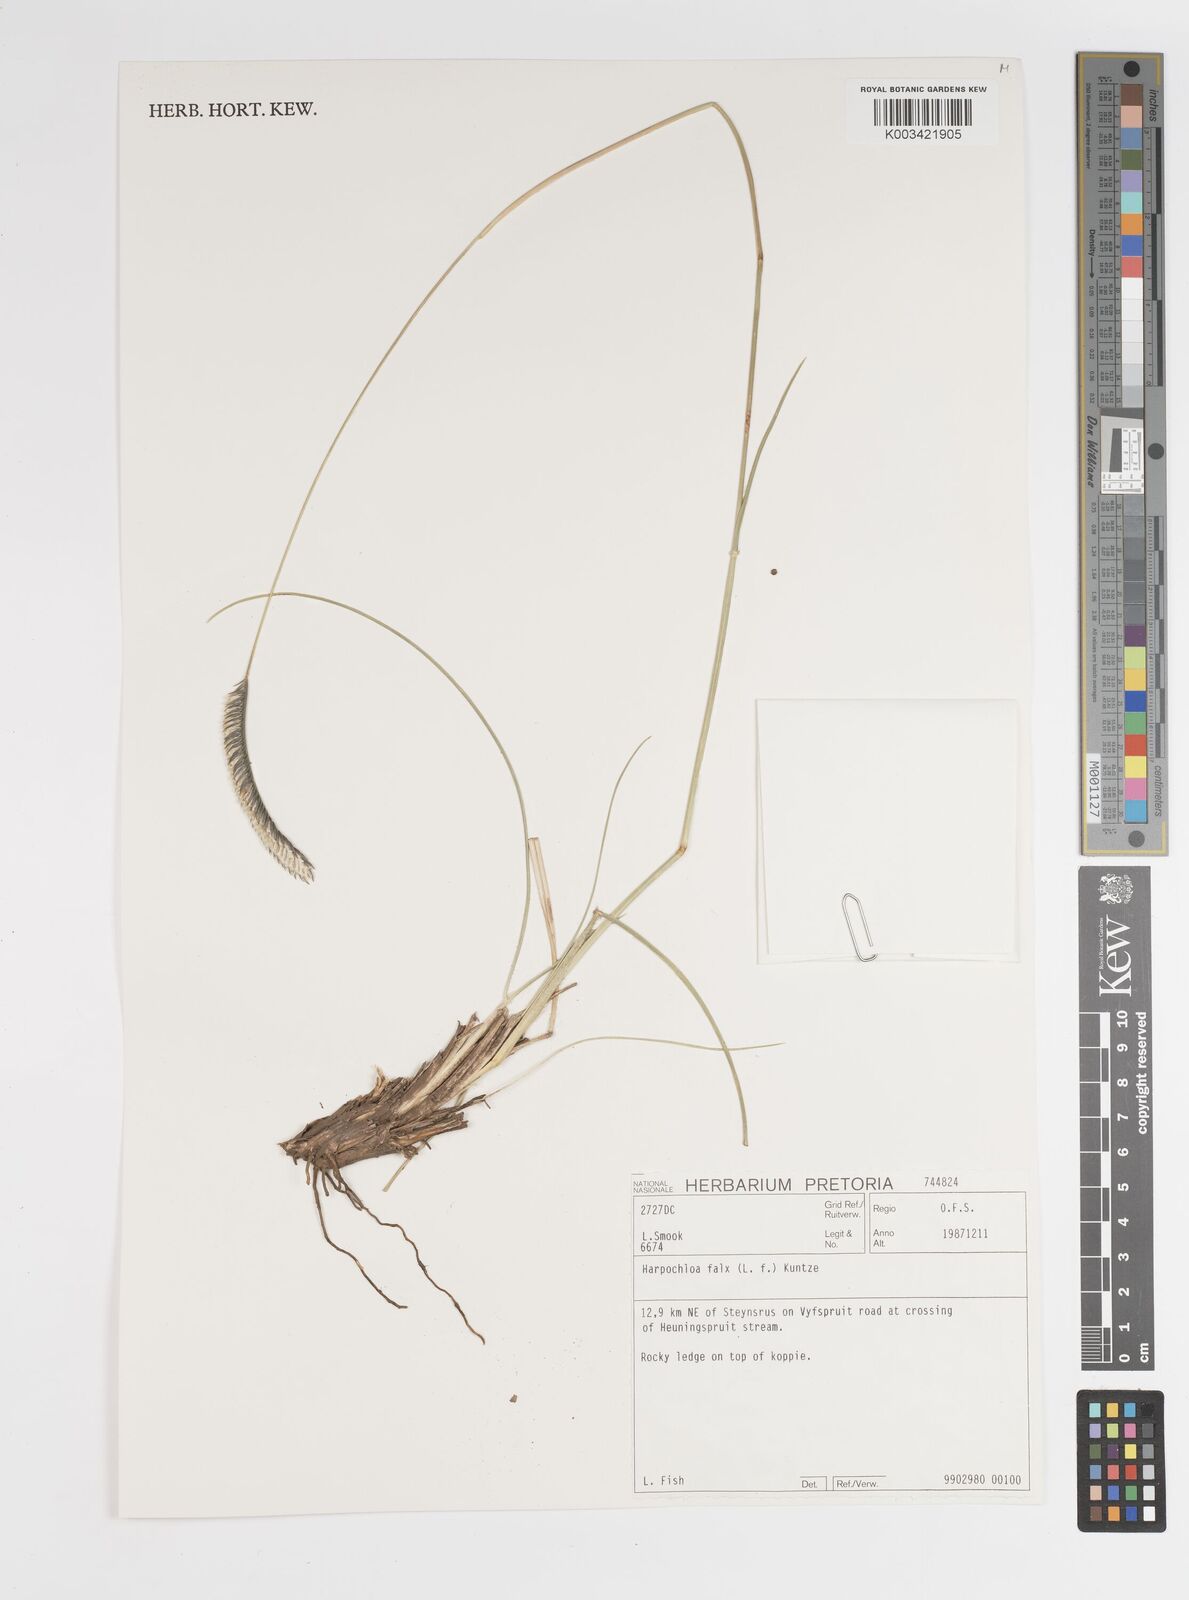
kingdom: Plantae
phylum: Tracheophyta
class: Liliopsida
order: Poales
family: Poaceae
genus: Harpochloa
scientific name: Harpochloa falx
